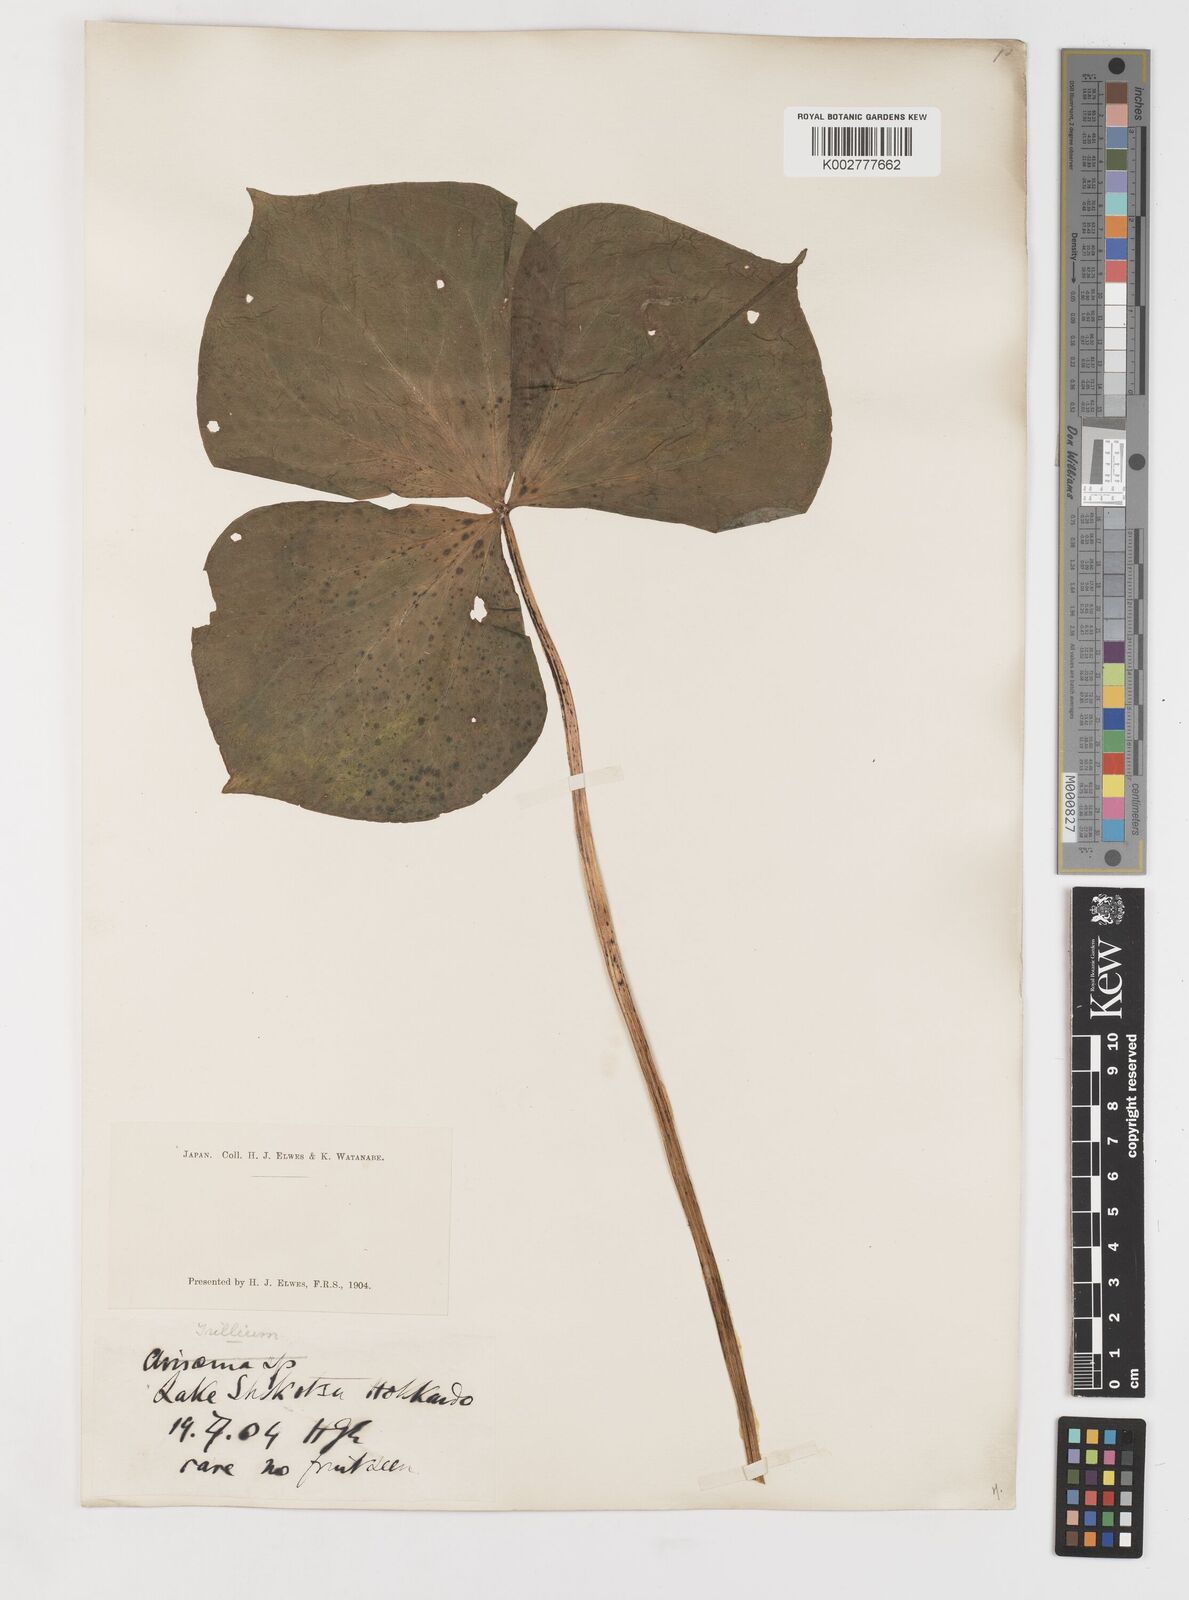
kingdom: Plantae
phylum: Tracheophyta
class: Liliopsida
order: Liliales
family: Melanthiaceae
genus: Trillium
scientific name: Trillium smallii
